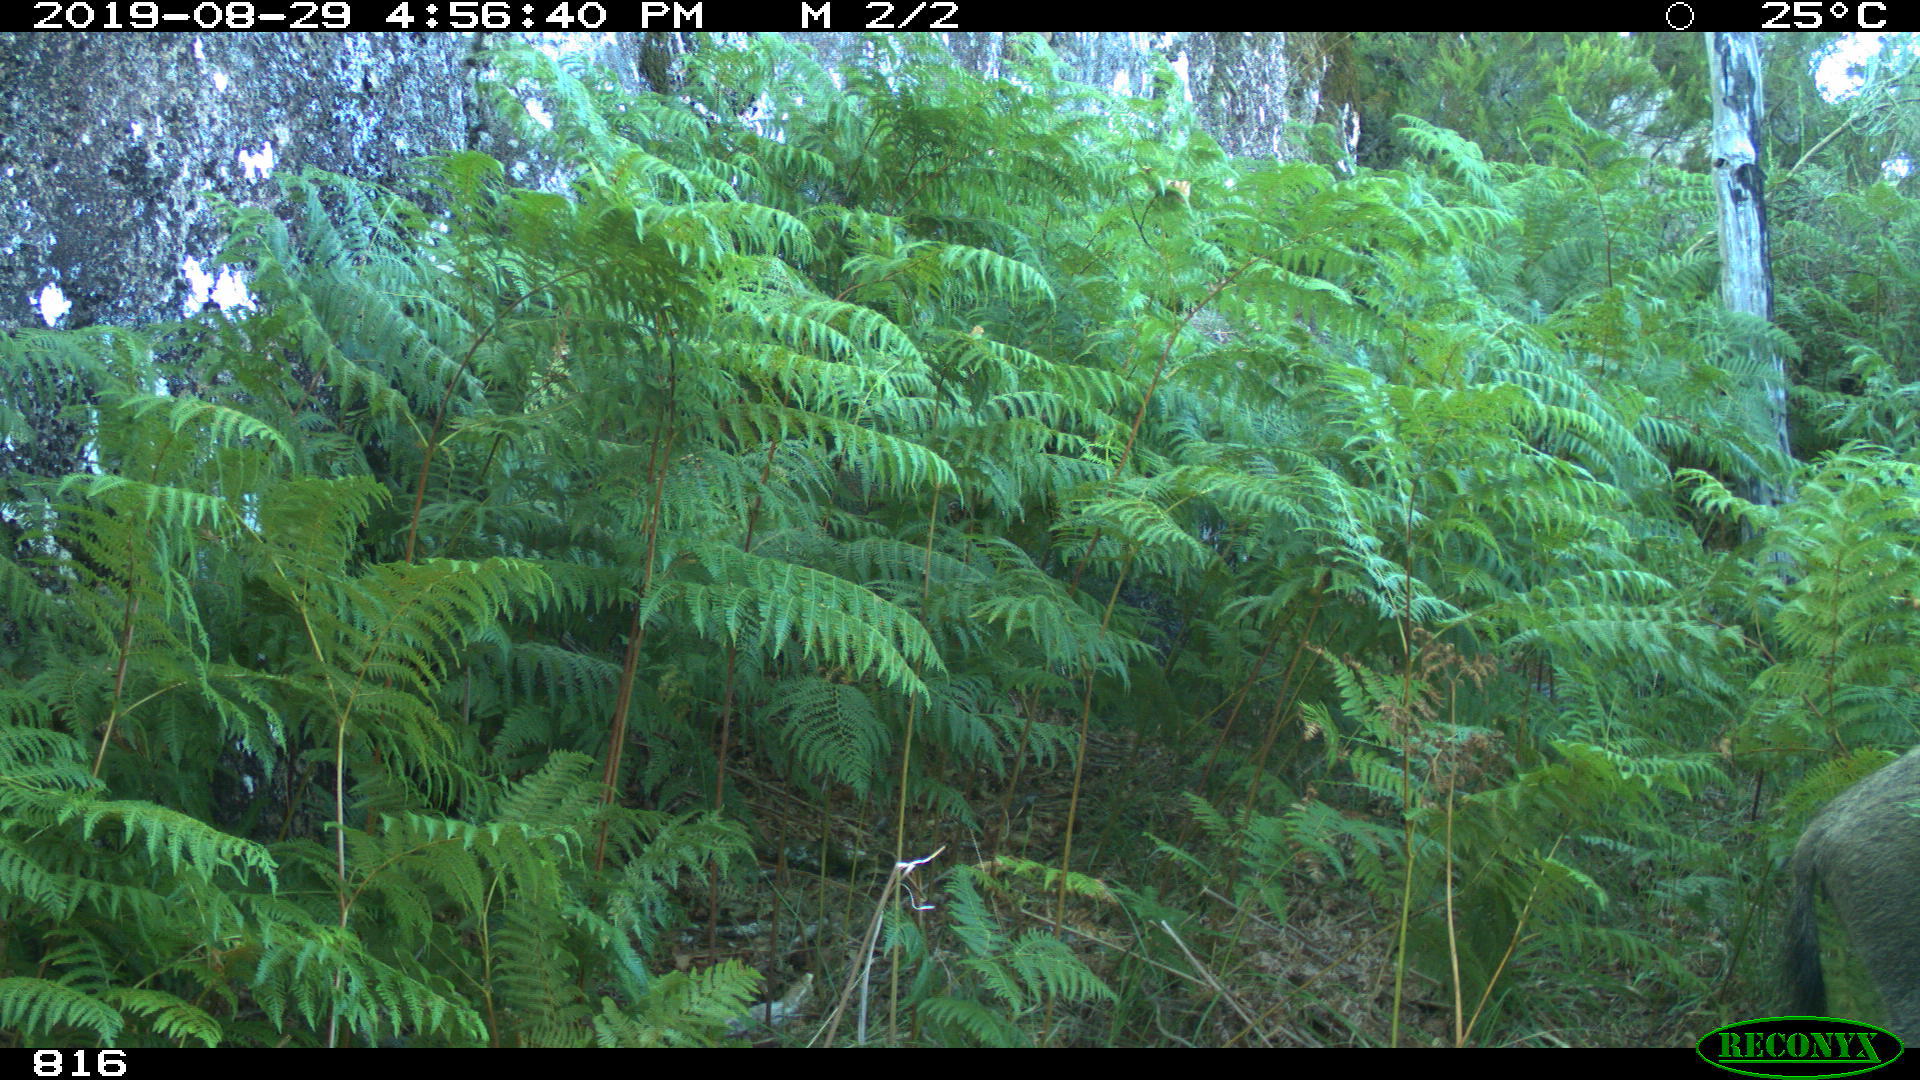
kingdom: Animalia
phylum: Chordata
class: Mammalia
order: Artiodactyla
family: Suidae
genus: Sus
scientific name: Sus scrofa
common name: Wild boar
